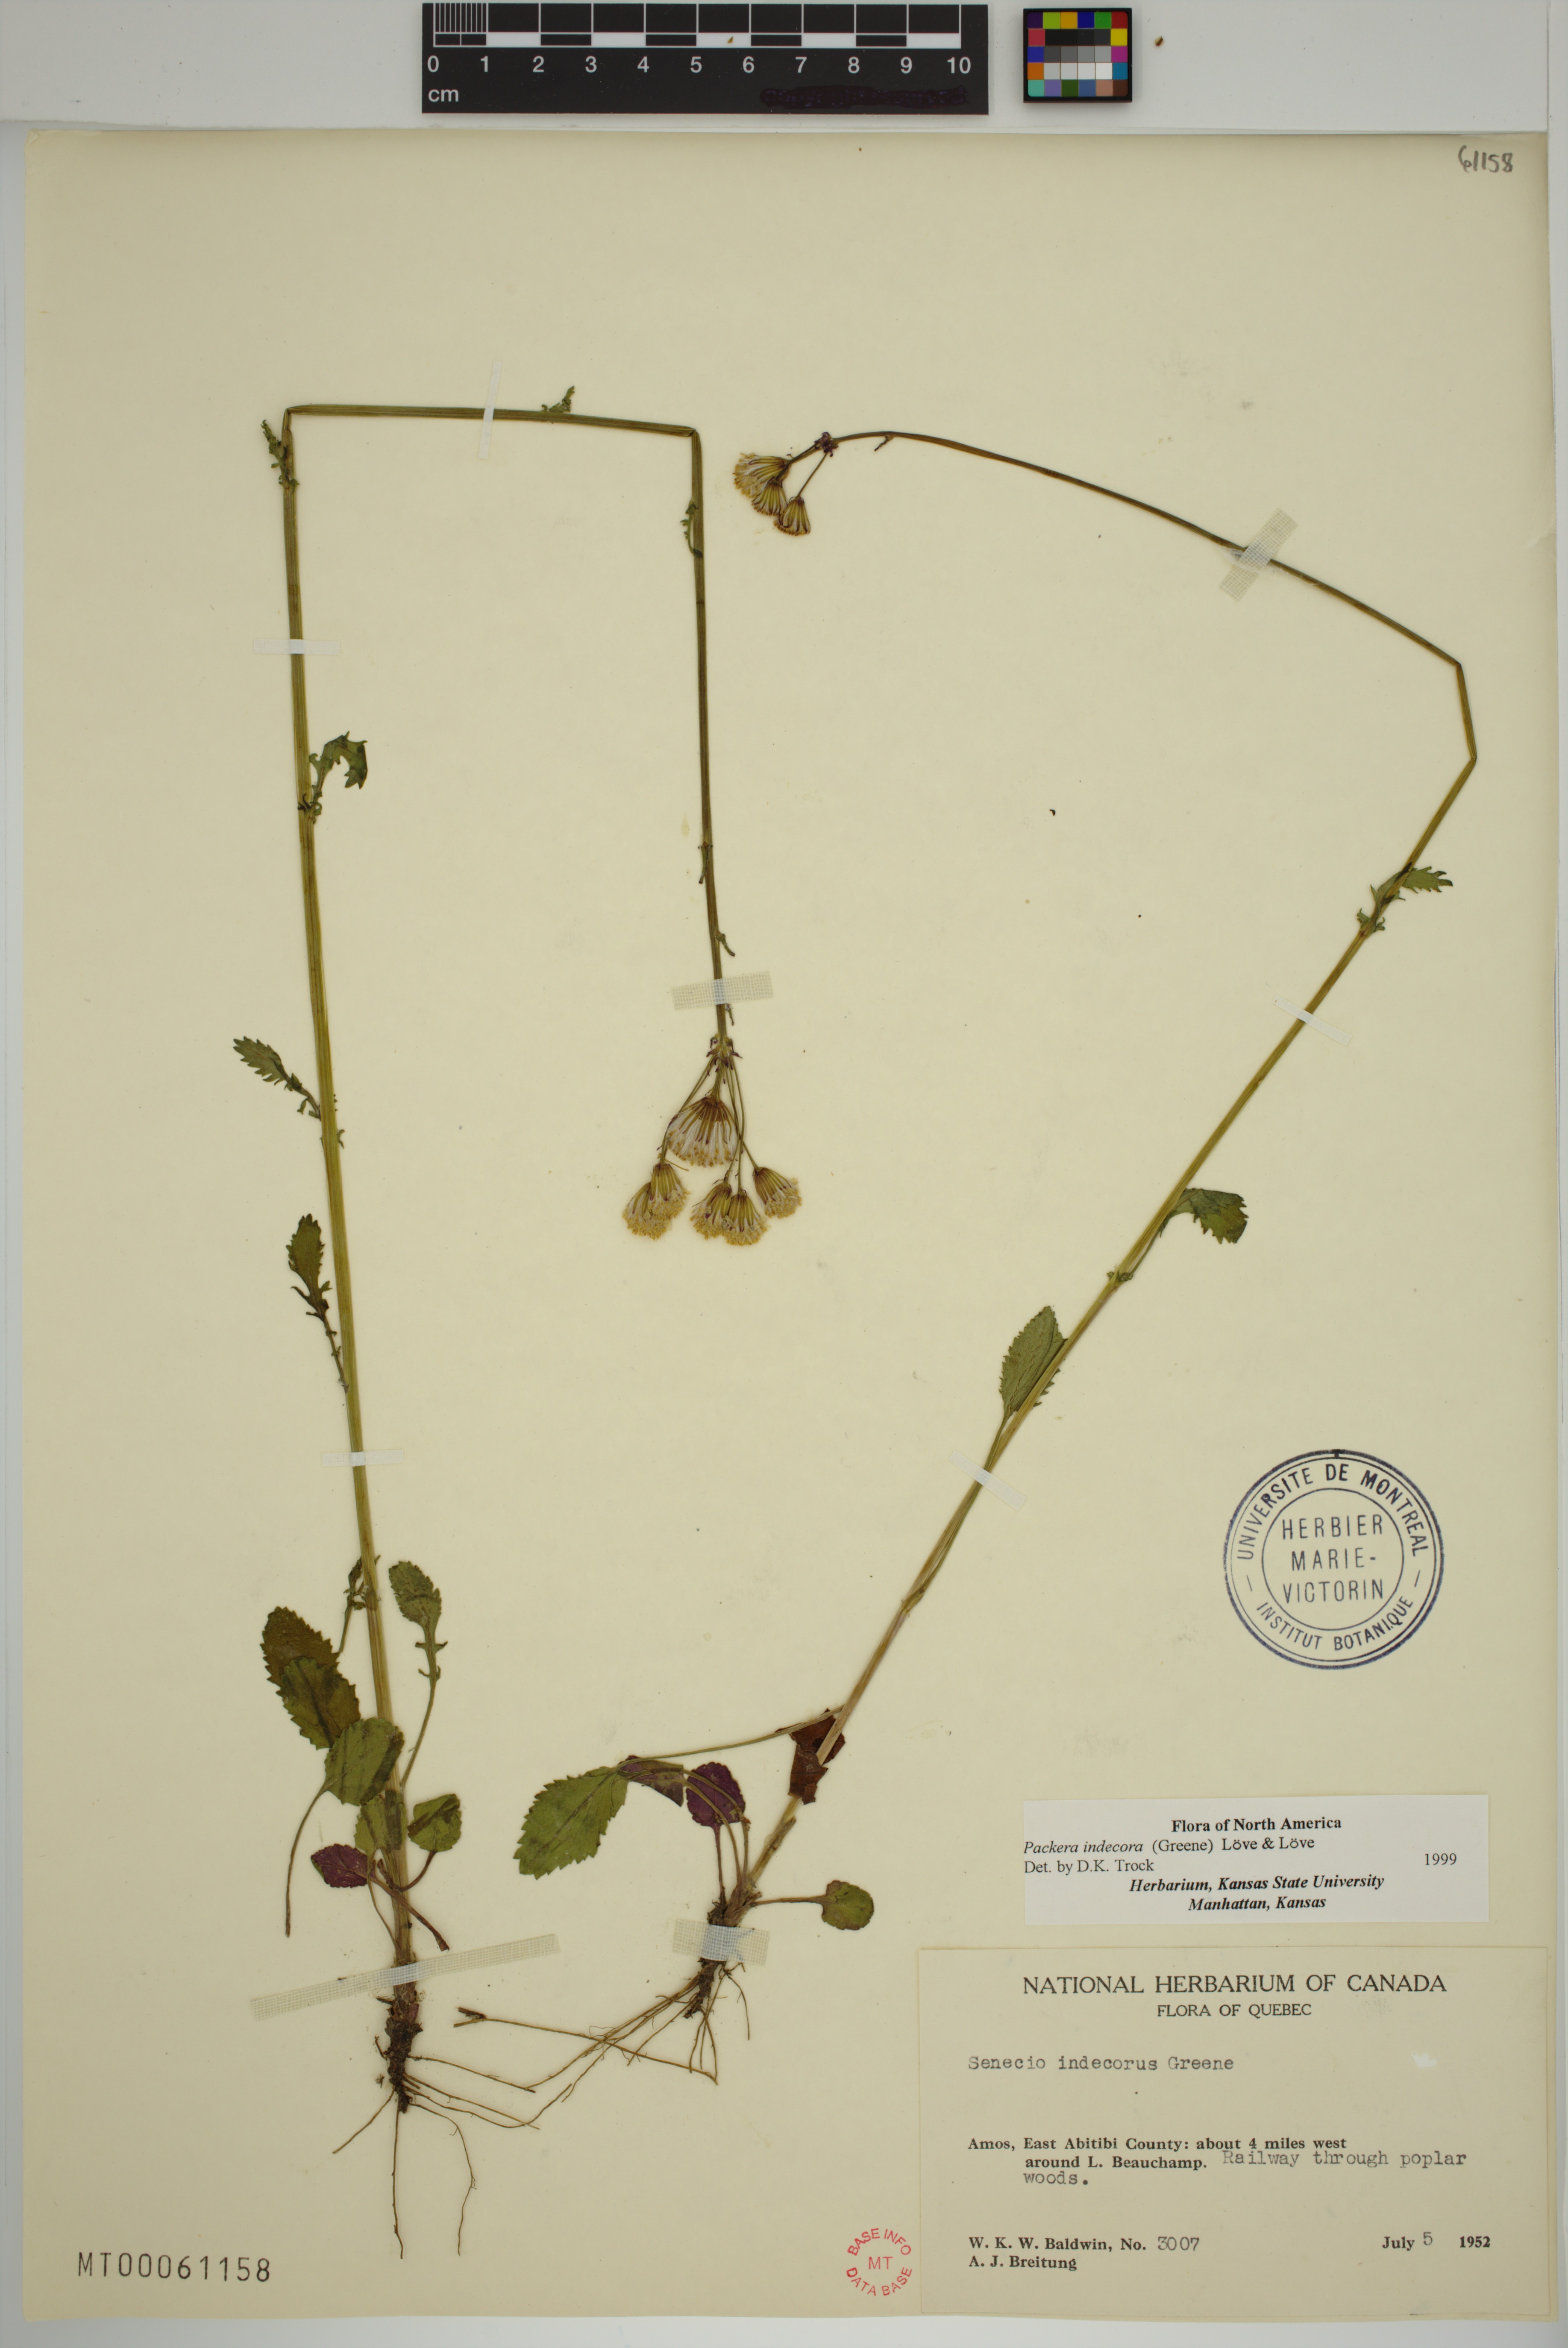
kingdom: Plantae
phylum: Tracheophyta
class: Magnoliopsida
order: Asterales
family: Asteraceae
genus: Packera
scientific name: Packera indecora
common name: Elegant groundsel
